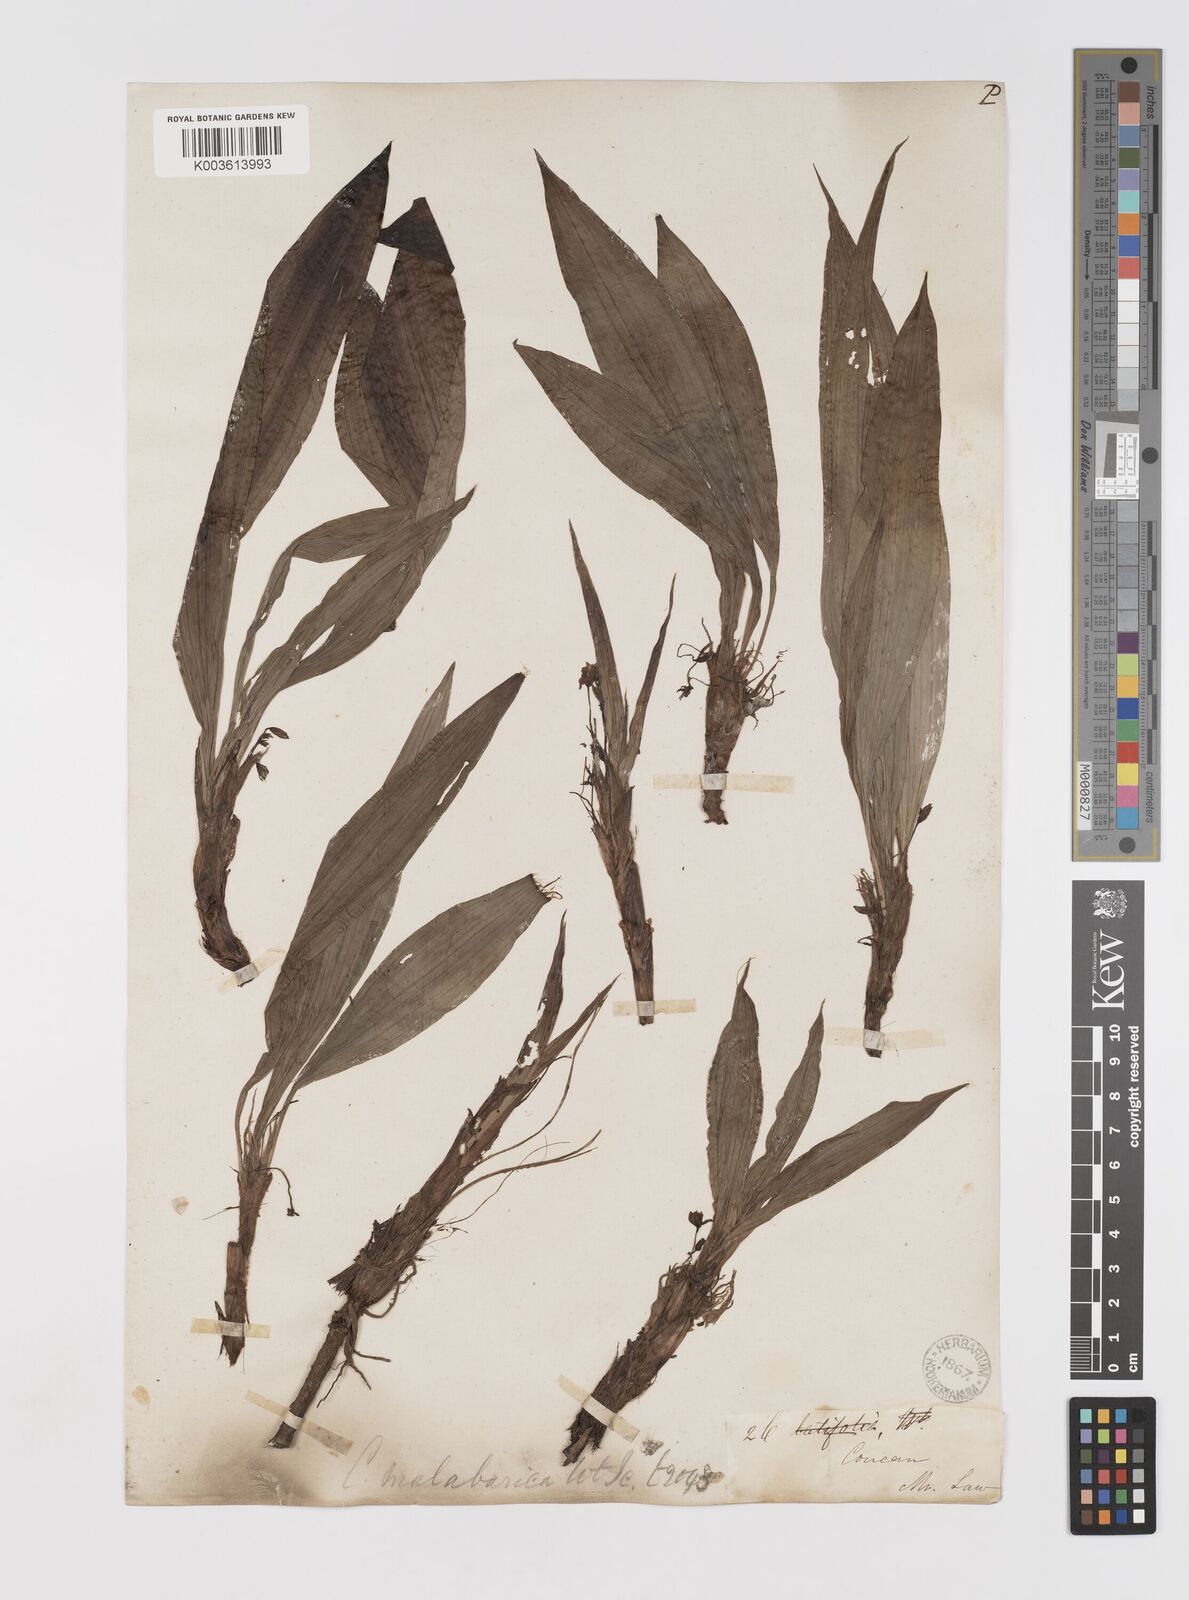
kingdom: Plantae
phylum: Tracheophyta
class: Liliopsida
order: Asparagales
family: Hypoxidaceae
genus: Curculigo
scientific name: Curculigo orchioides
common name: Golden eye-grass
